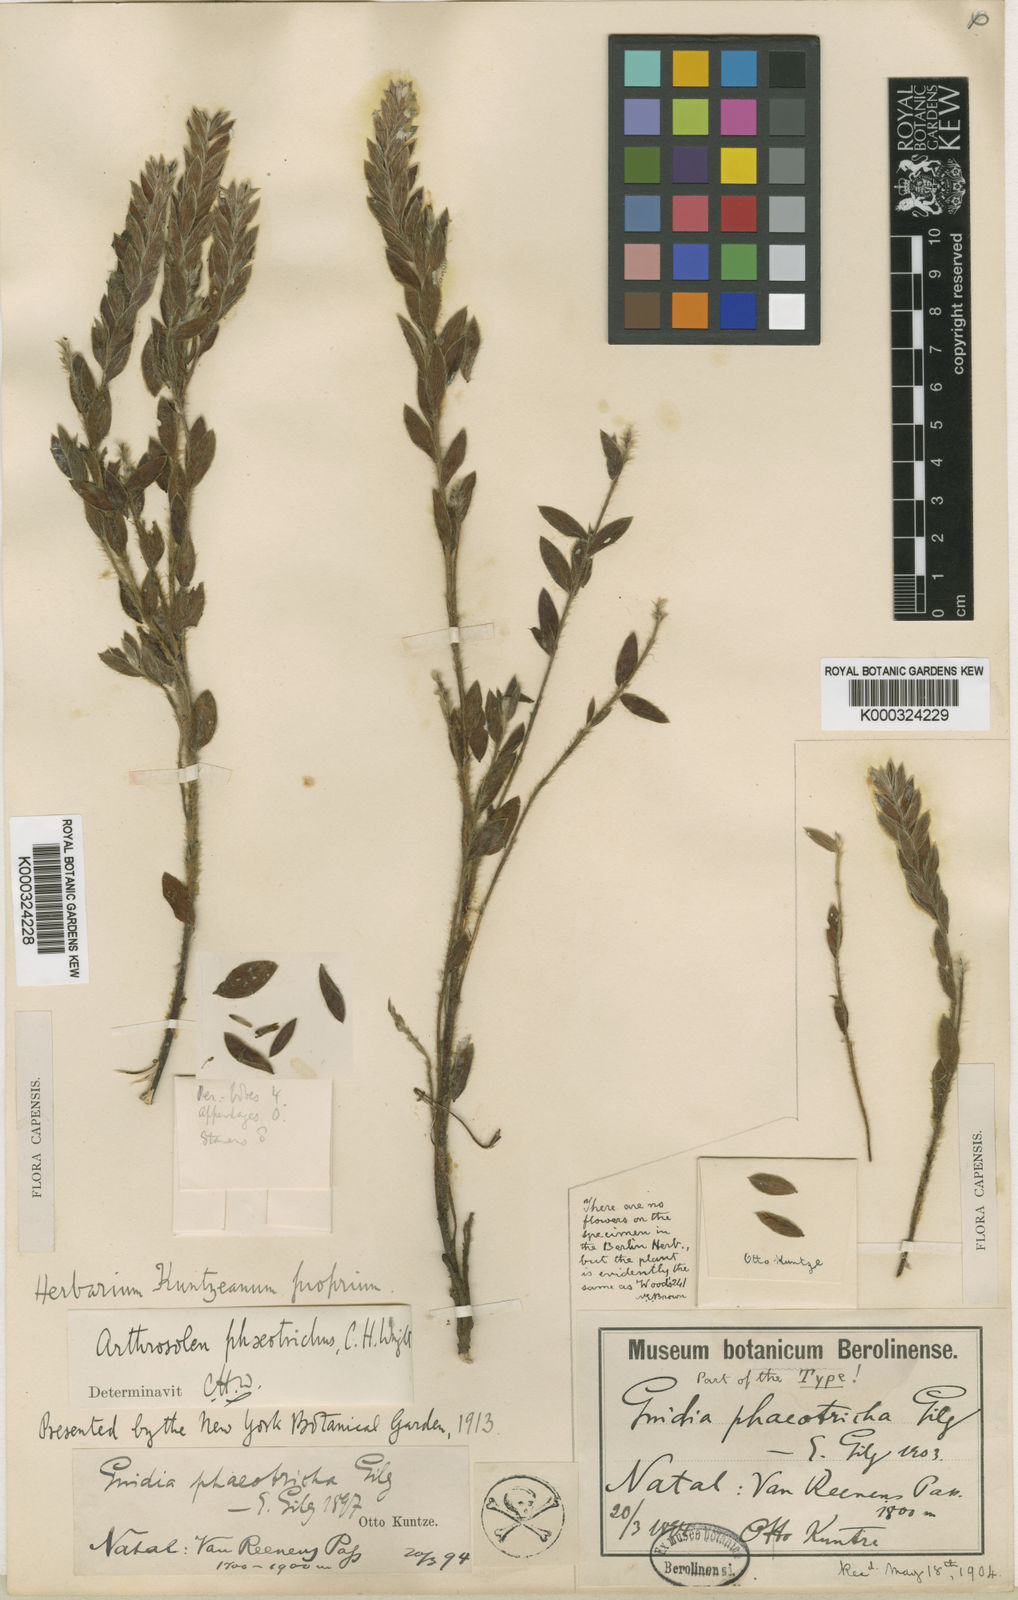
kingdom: Plantae
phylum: Tracheophyta
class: Magnoliopsida
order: Malvales
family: Thymelaeaceae
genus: Gnidia
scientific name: Gnidia phaeotricha
